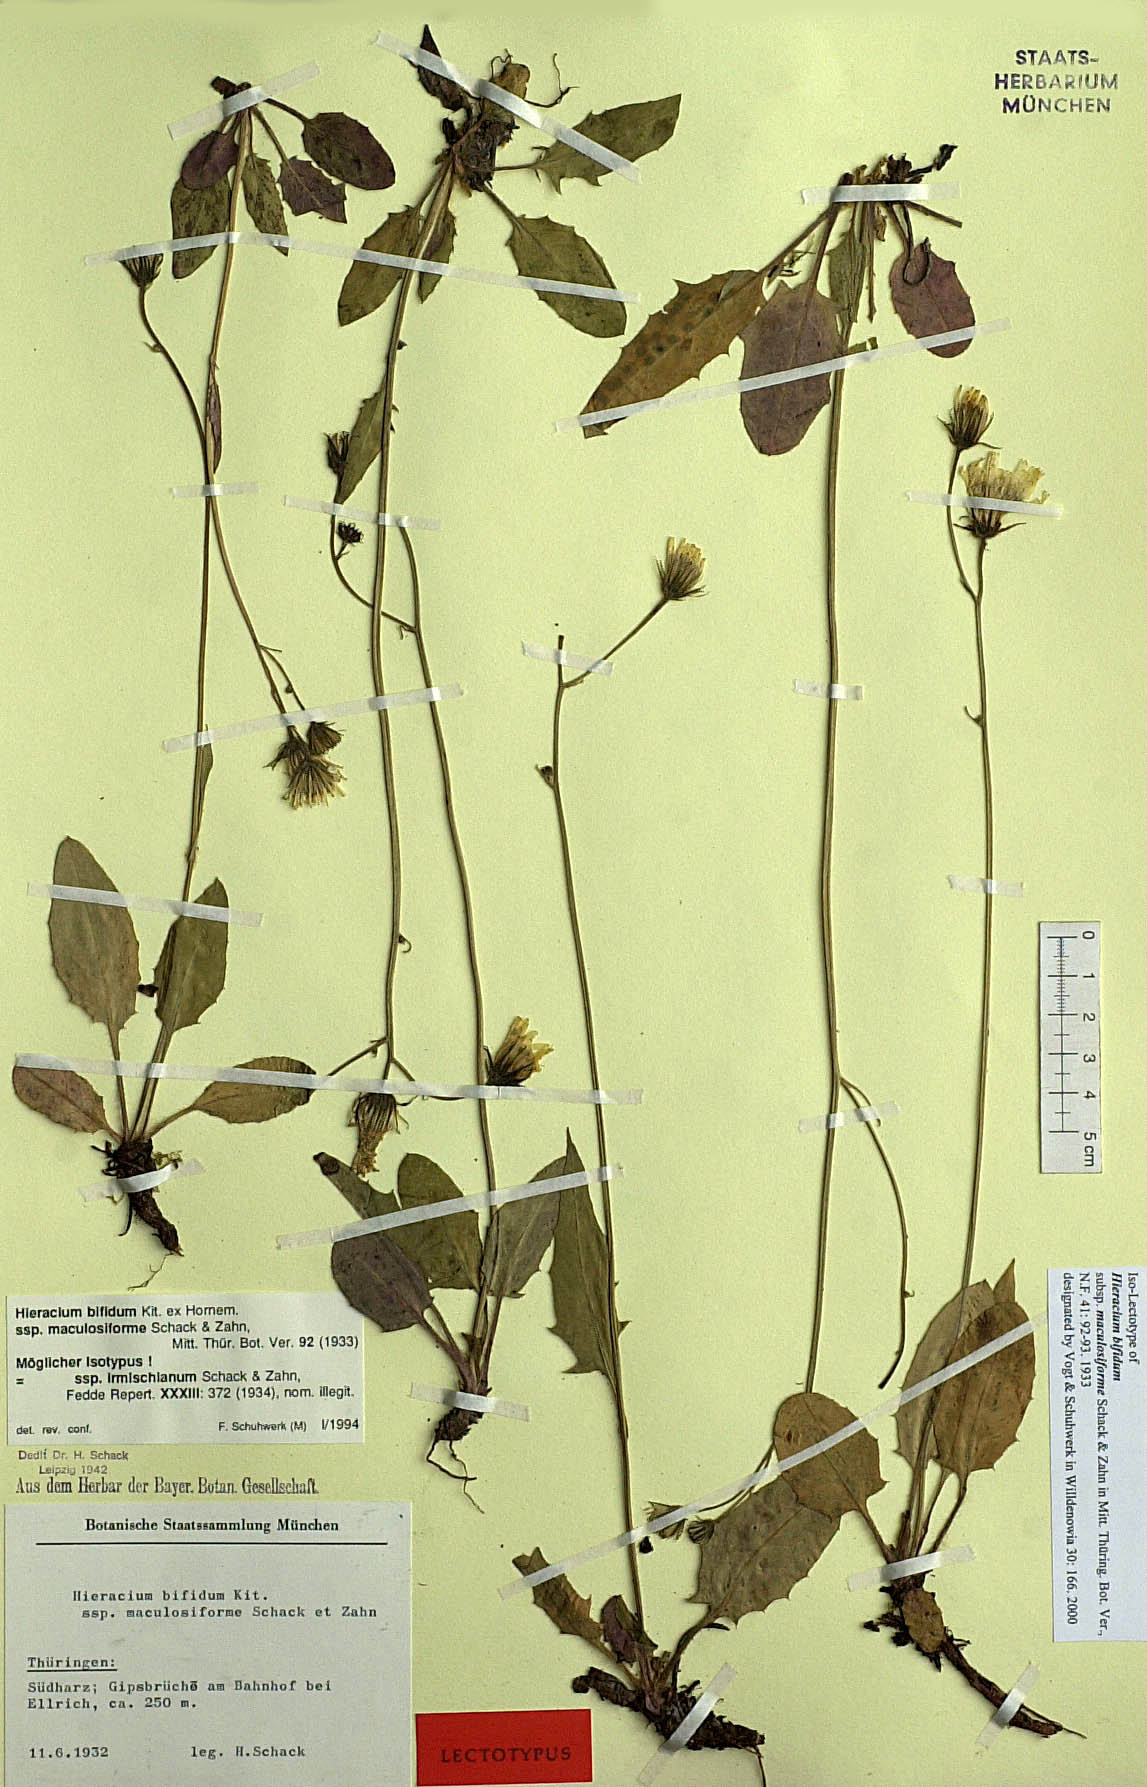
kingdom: Plantae
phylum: Tracheophyta
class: Magnoliopsida
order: Asterales
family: Asteraceae
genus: Hieracium
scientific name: Hieracium bifidum
